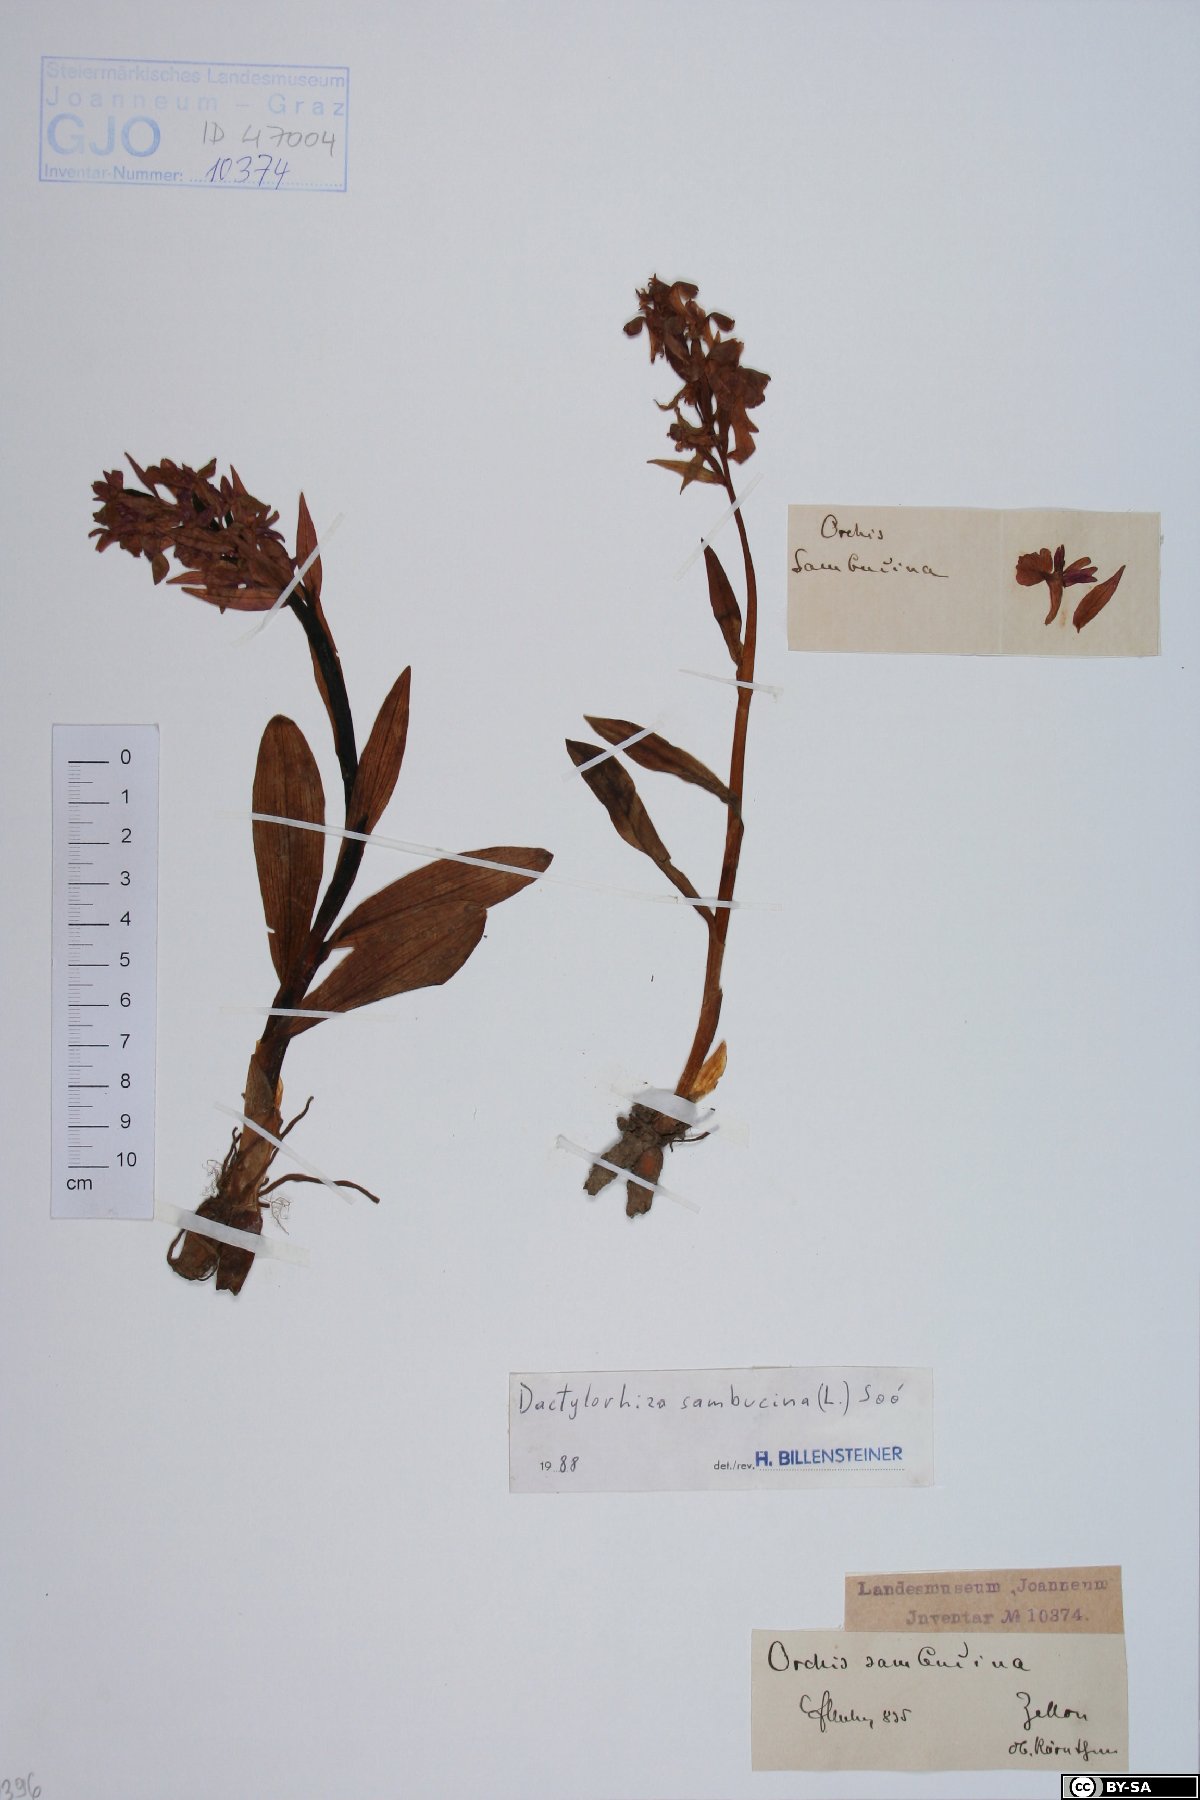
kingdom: Plantae
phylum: Tracheophyta
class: Liliopsida
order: Asparagales
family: Orchidaceae
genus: Dactylorhiza
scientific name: Dactylorhiza sambucina
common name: Elder-flowered orchid
